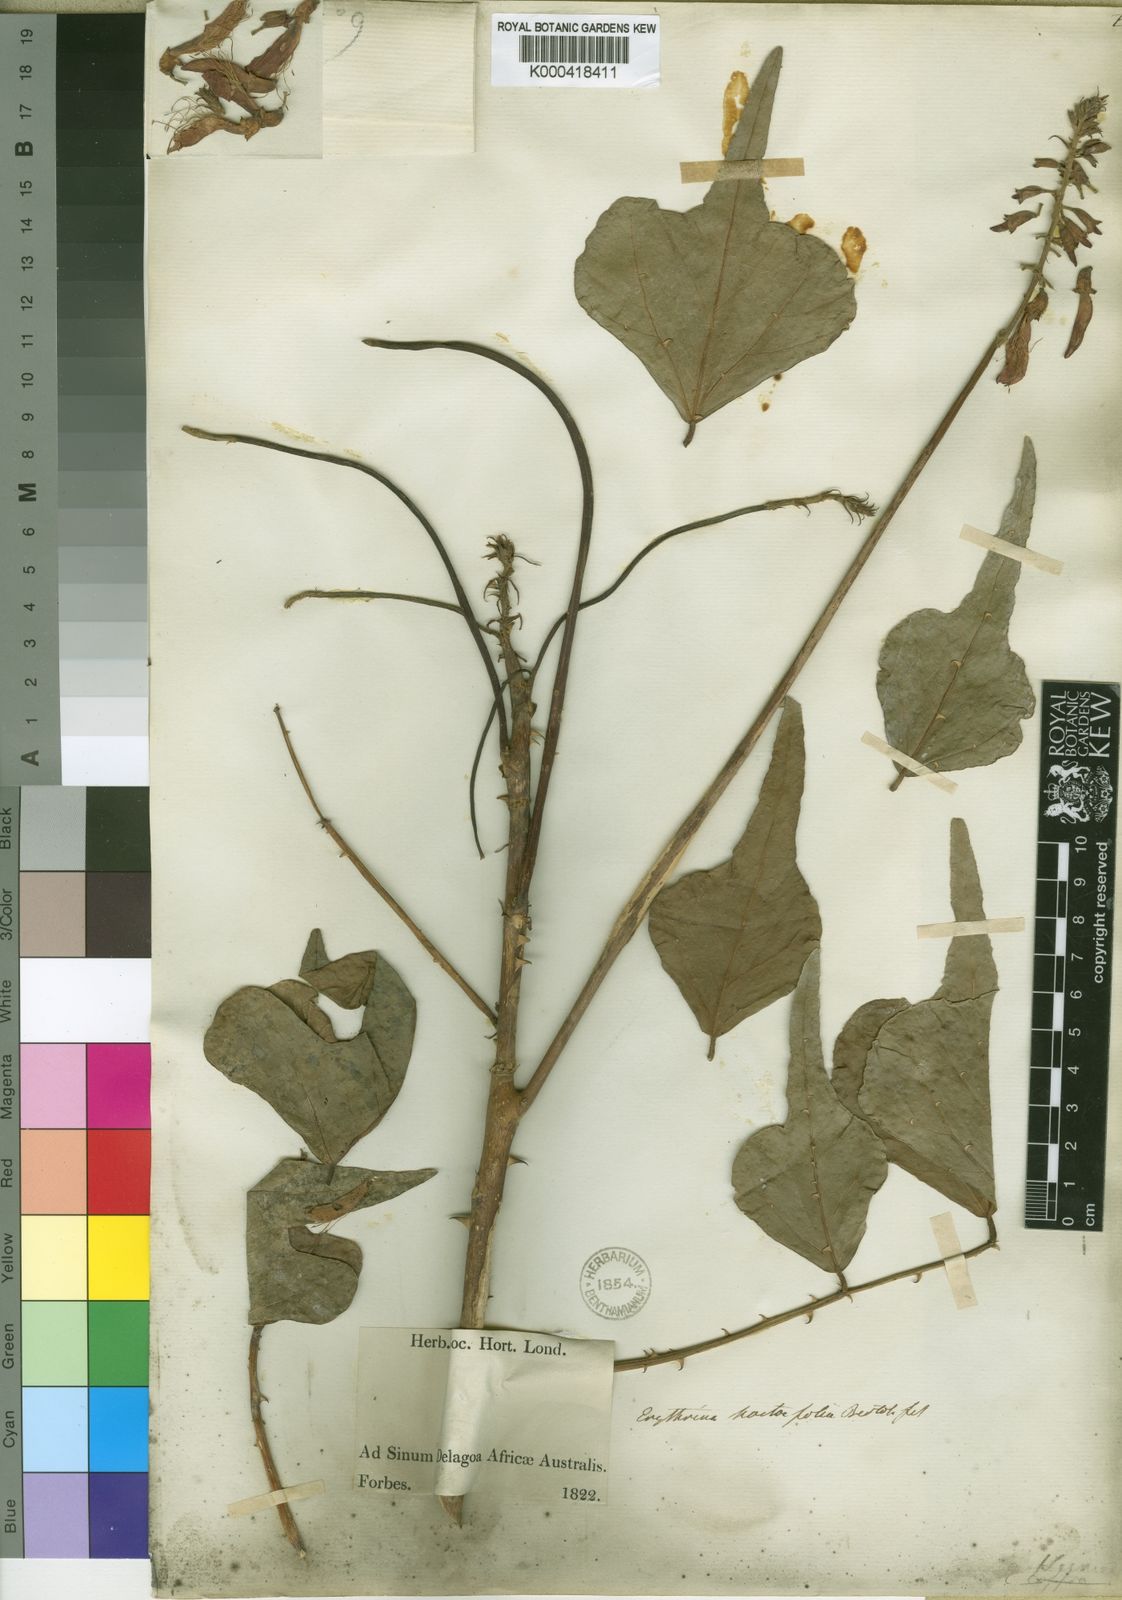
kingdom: Plantae
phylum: Tracheophyta
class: Magnoliopsida
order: Fabales
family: Fabaceae
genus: Erythrina
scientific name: Erythrina humeana
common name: Dwarf coral tree
